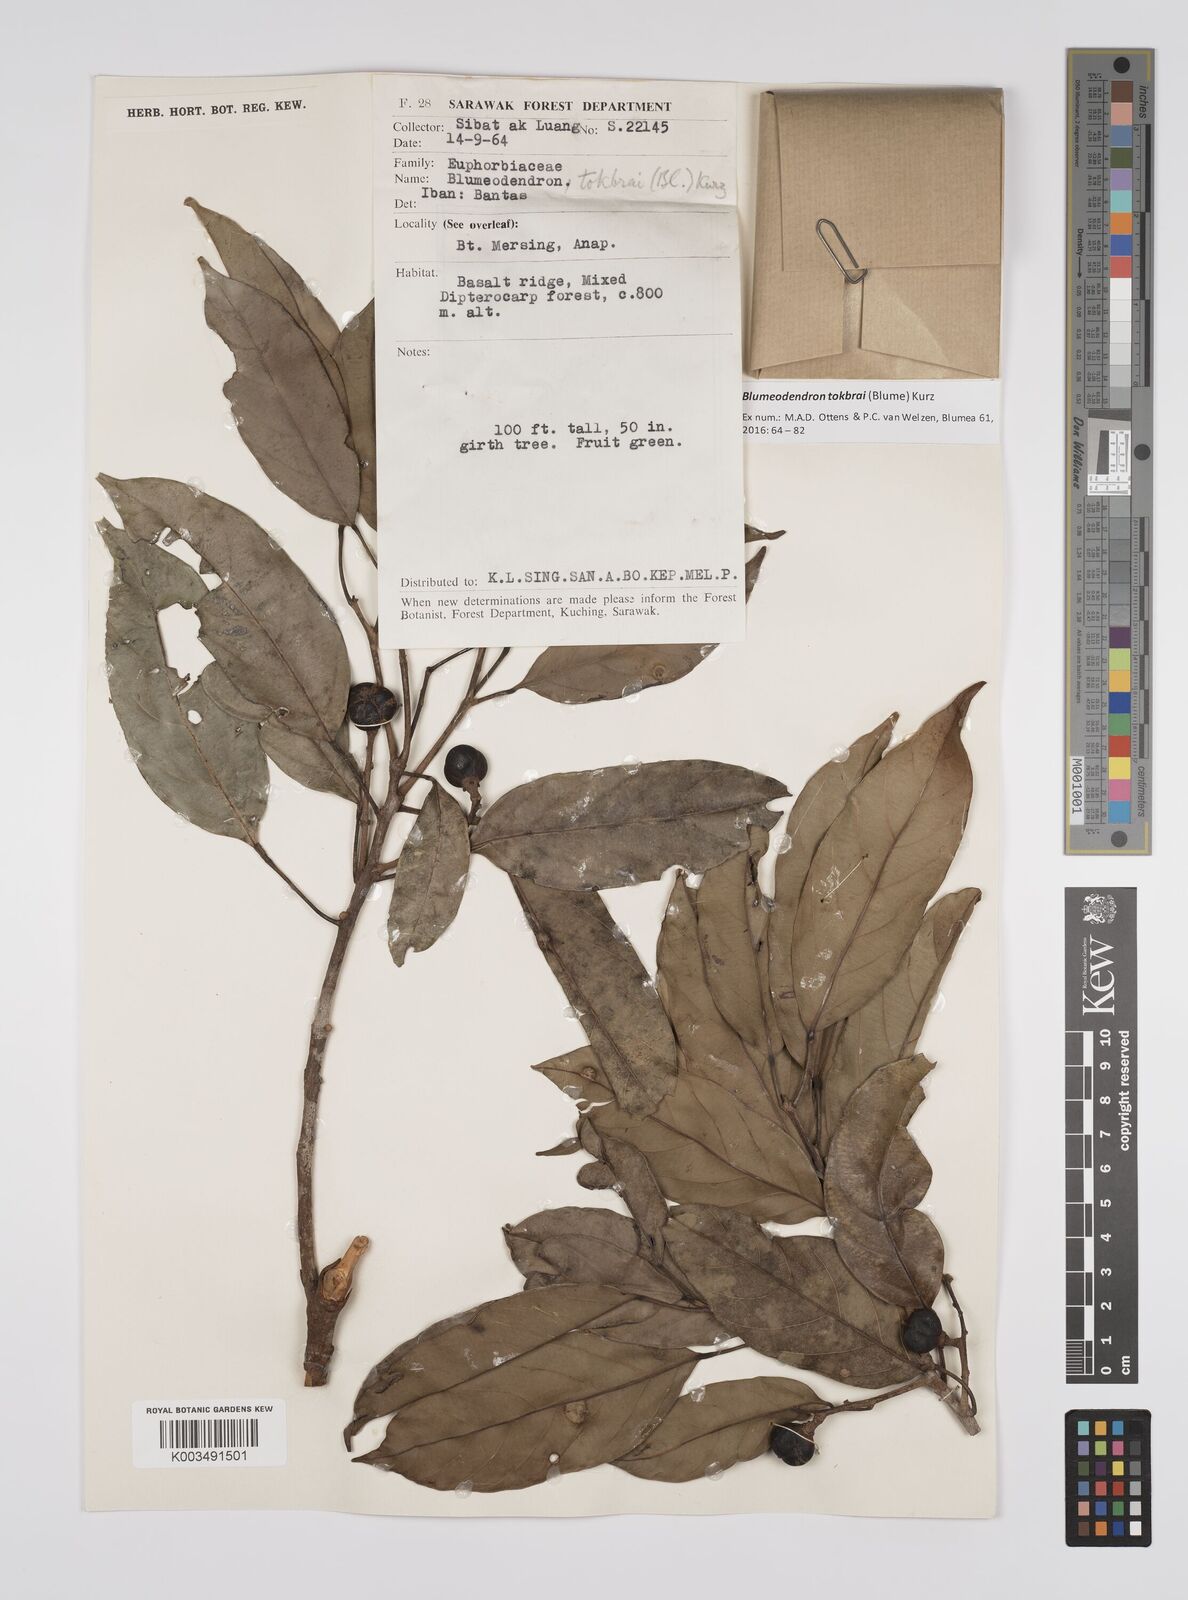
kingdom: Plantae
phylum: Tracheophyta
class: Magnoliopsida
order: Malpighiales
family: Euphorbiaceae
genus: Blumeodendron
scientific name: Blumeodendron tokbrai
